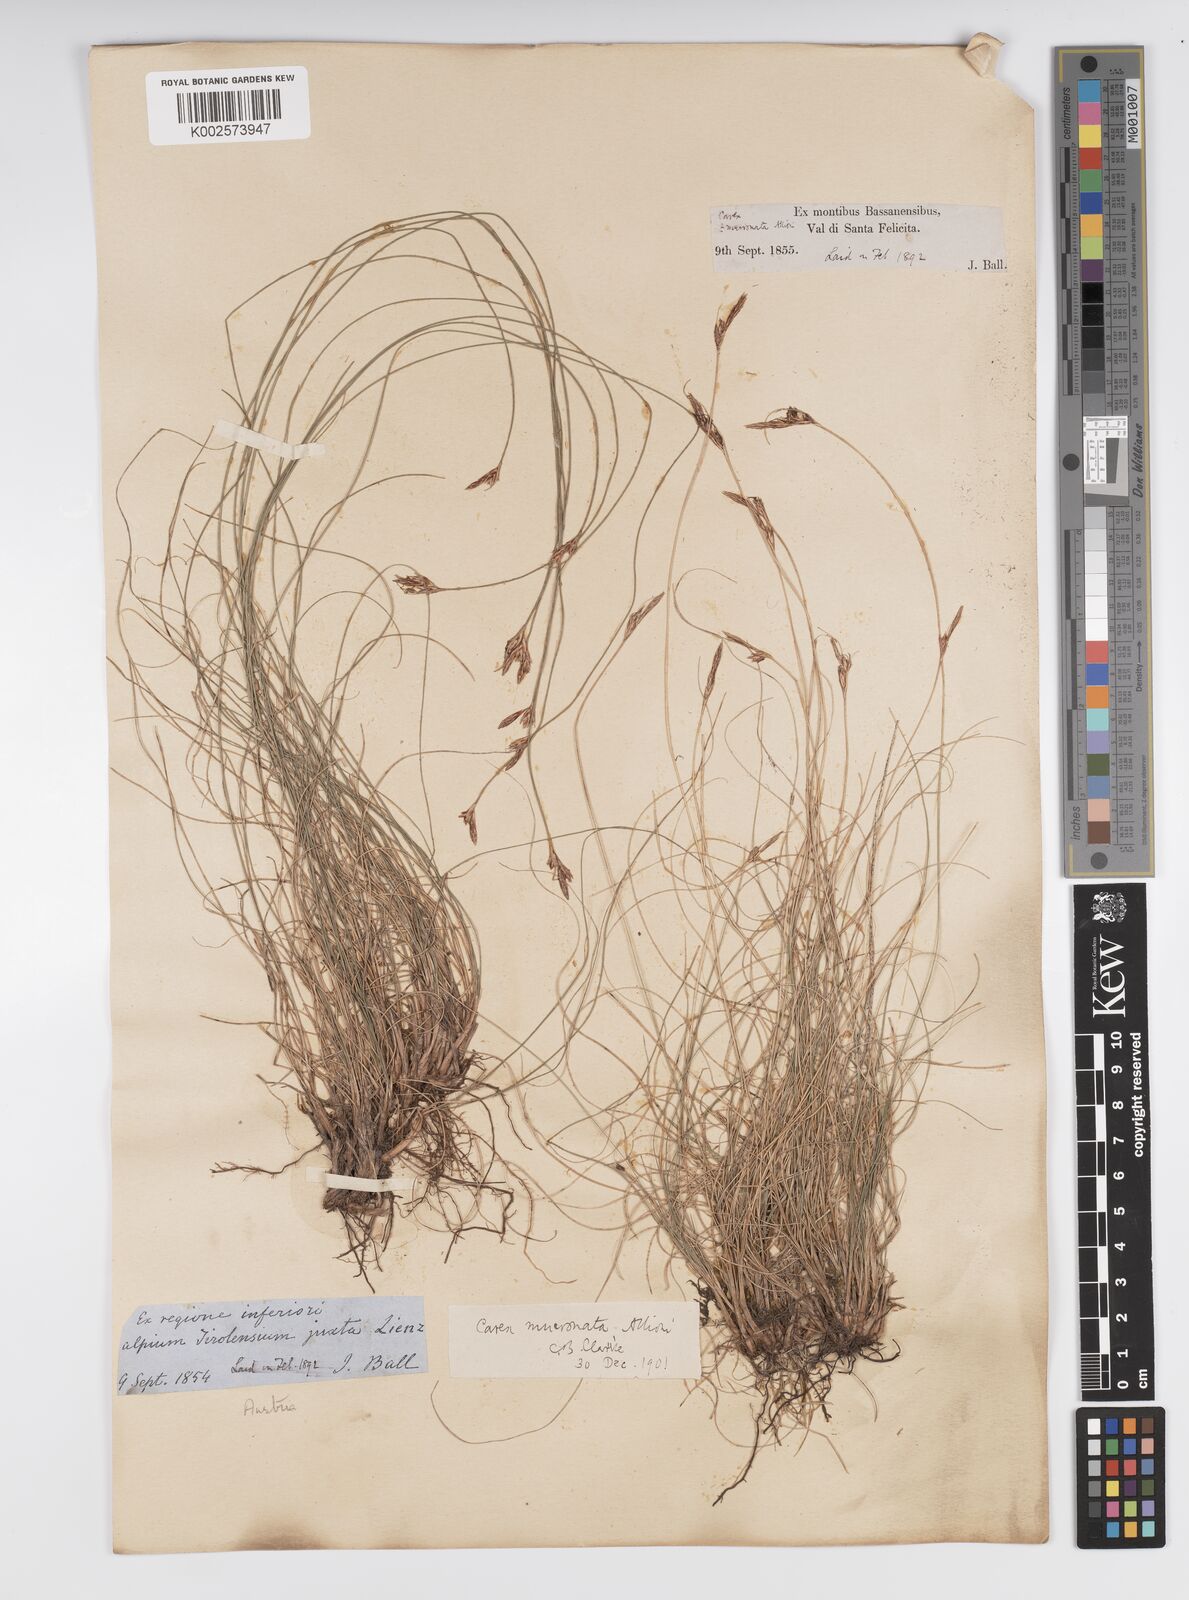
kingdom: Plantae
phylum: Tracheophyta
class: Liliopsida
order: Poales
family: Cyperaceae
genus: Carex
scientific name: Carex mucronata
